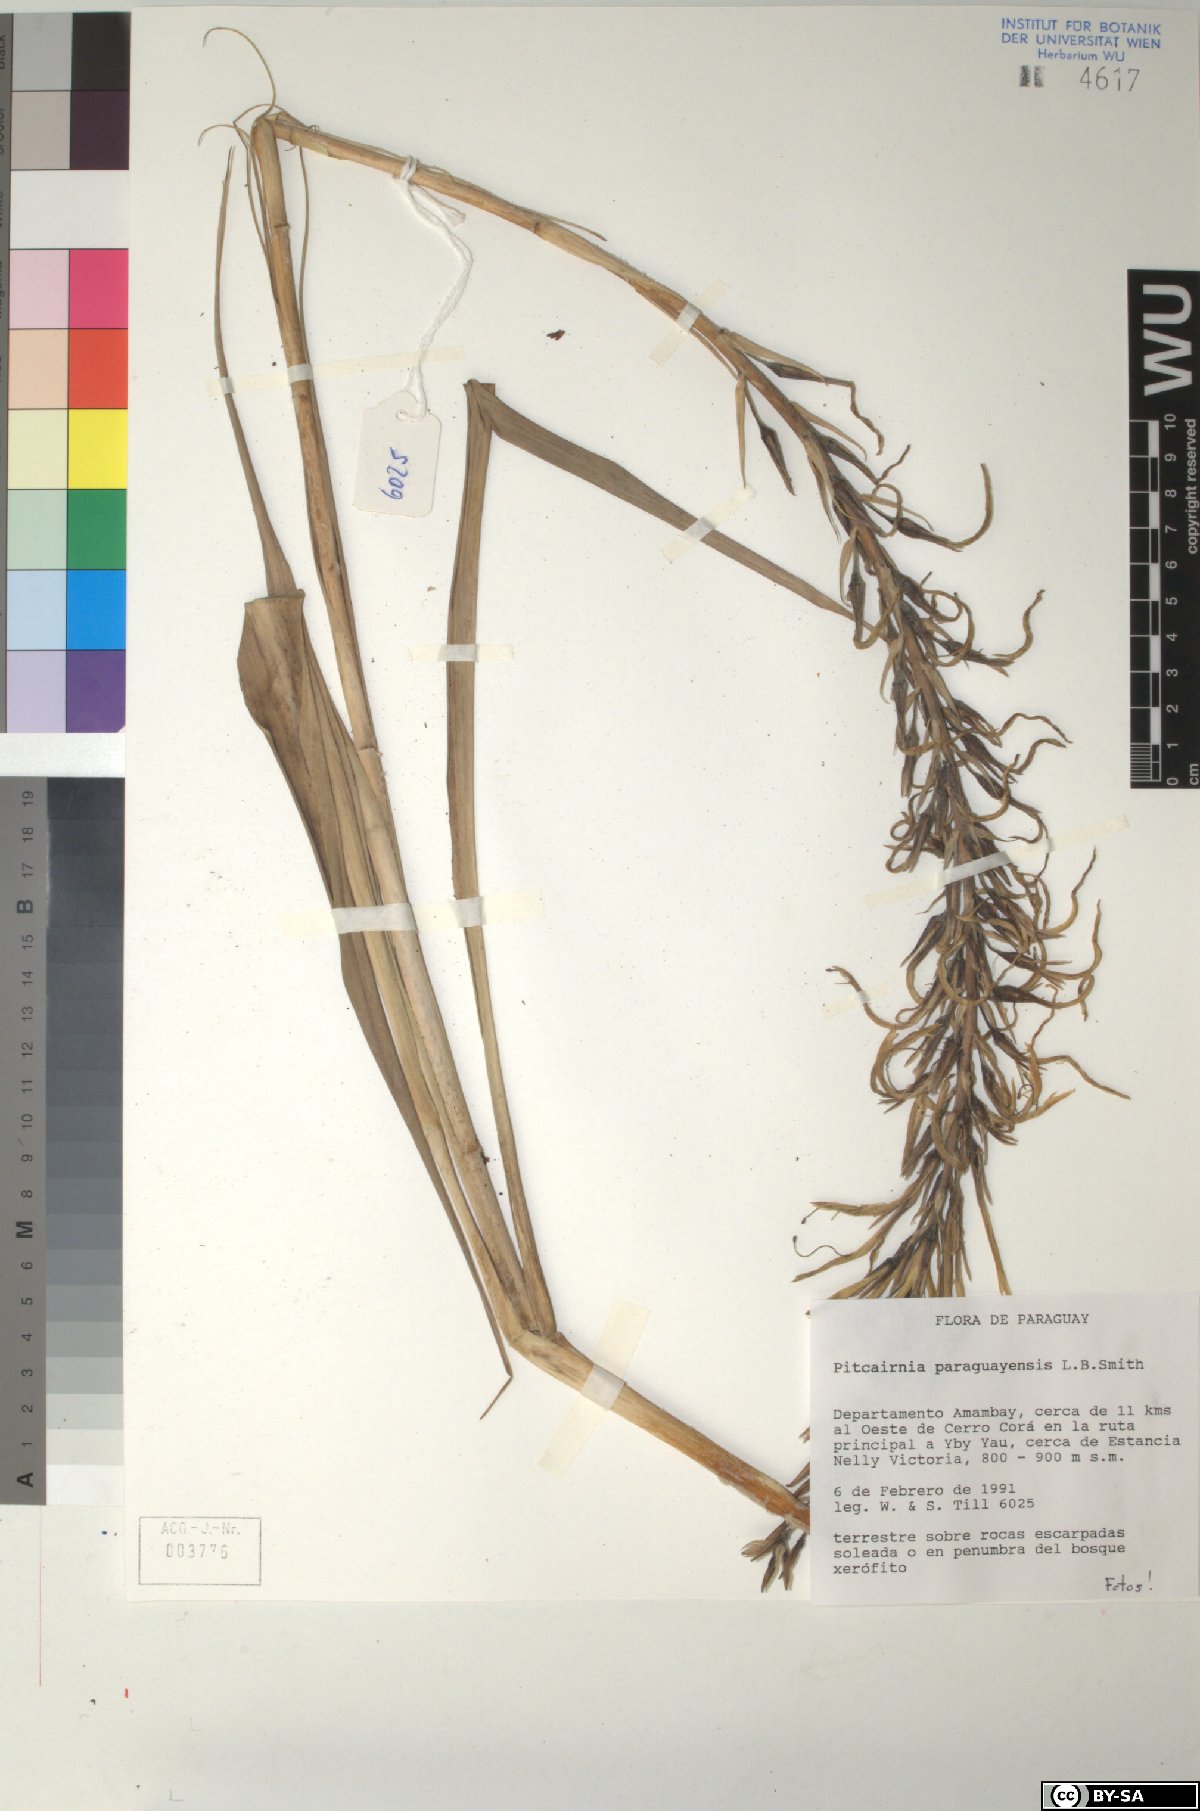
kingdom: Plantae
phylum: Tracheophyta
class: Liliopsida
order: Poales
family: Bromeliaceae
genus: Pitcairnia
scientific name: Pitcairnia paraguayensis
